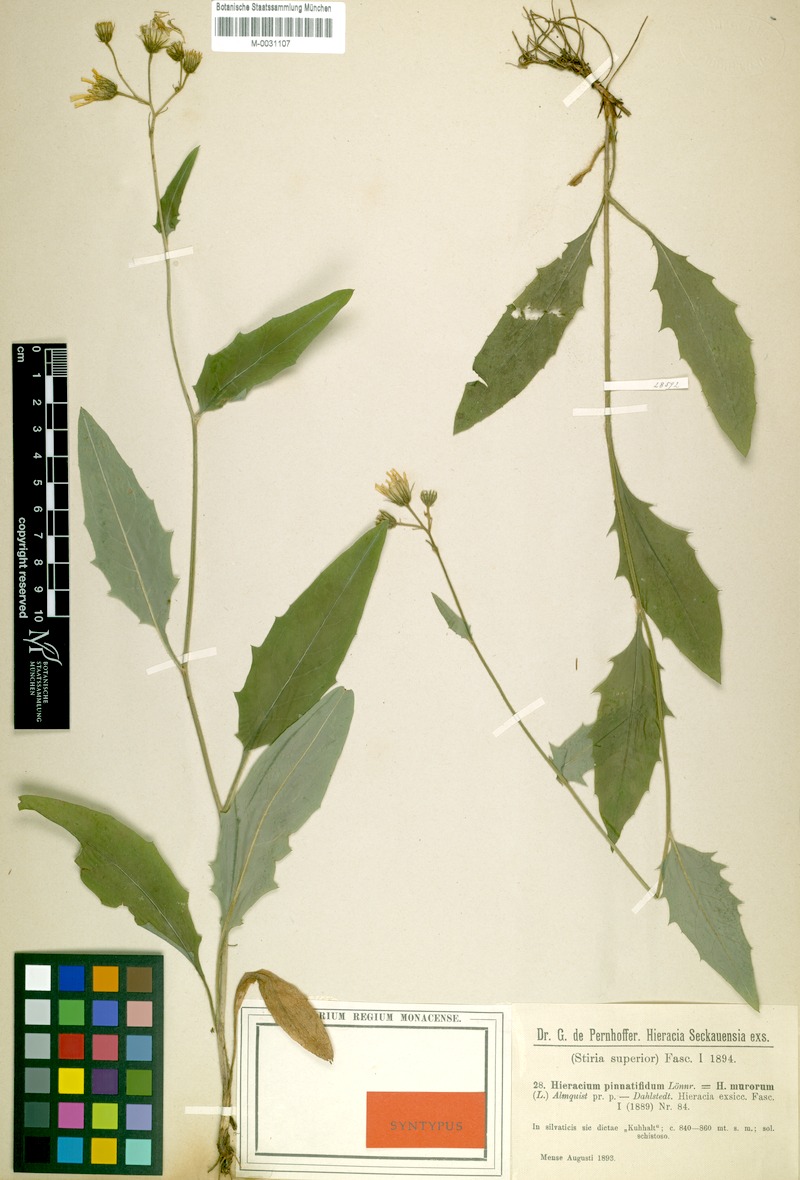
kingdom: Plantae
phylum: Tracheophyta
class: Magnoliopsida
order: Asterales
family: Asteraceae
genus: Hieracium
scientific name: Hieracium lachenalii
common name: Common hawkweed
